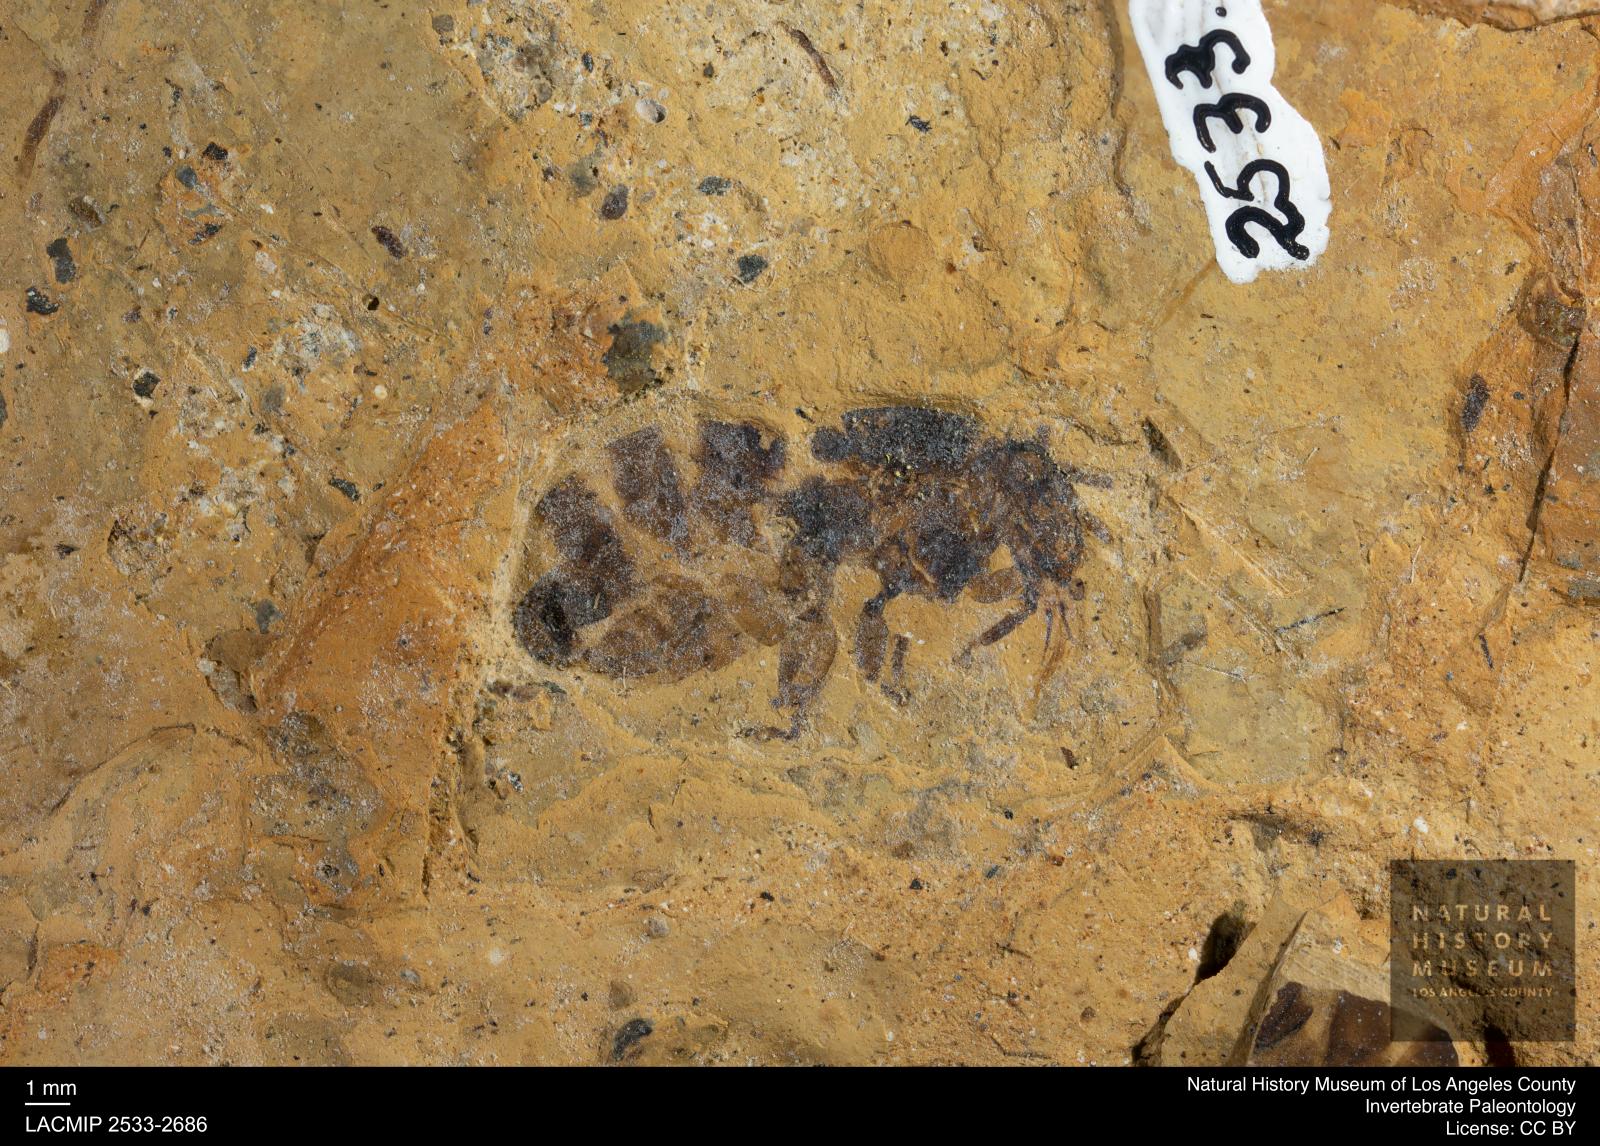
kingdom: Animalia
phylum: Arthropoda
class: Insecta
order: Hymenoptera
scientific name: Hymenoptera
